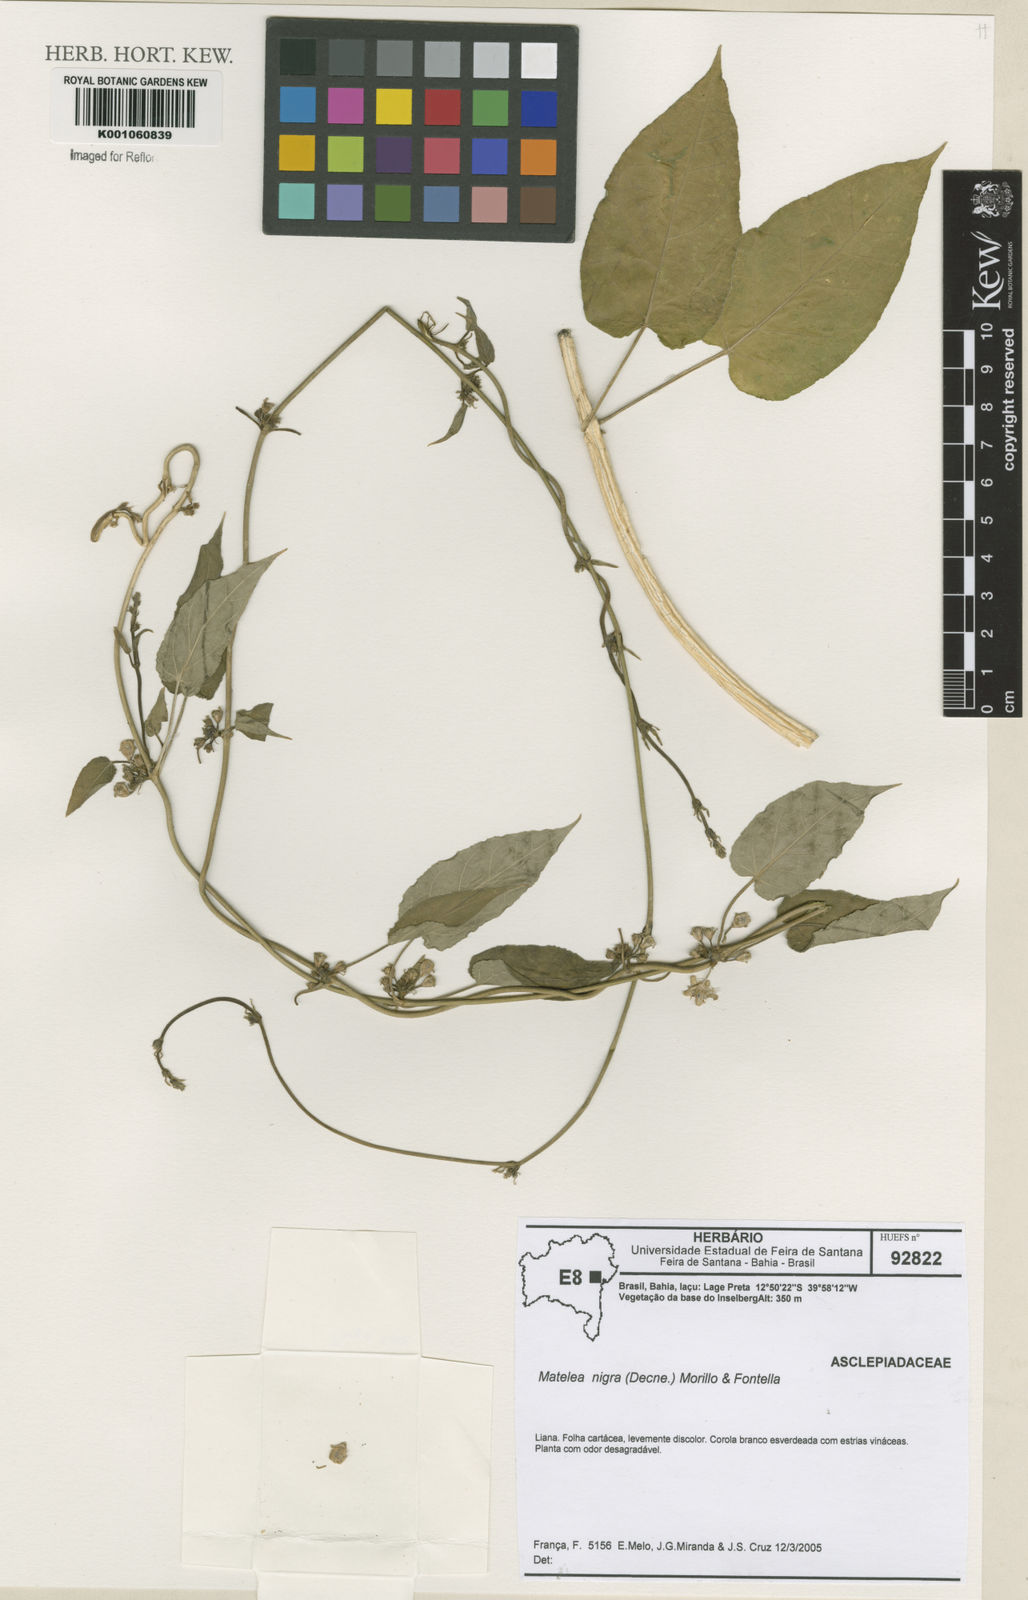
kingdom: Plantae
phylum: Tracheophyta
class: Magnoliopsida
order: Gentianales
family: Apocynaceae
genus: Ibatia
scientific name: Ibatia nigra
